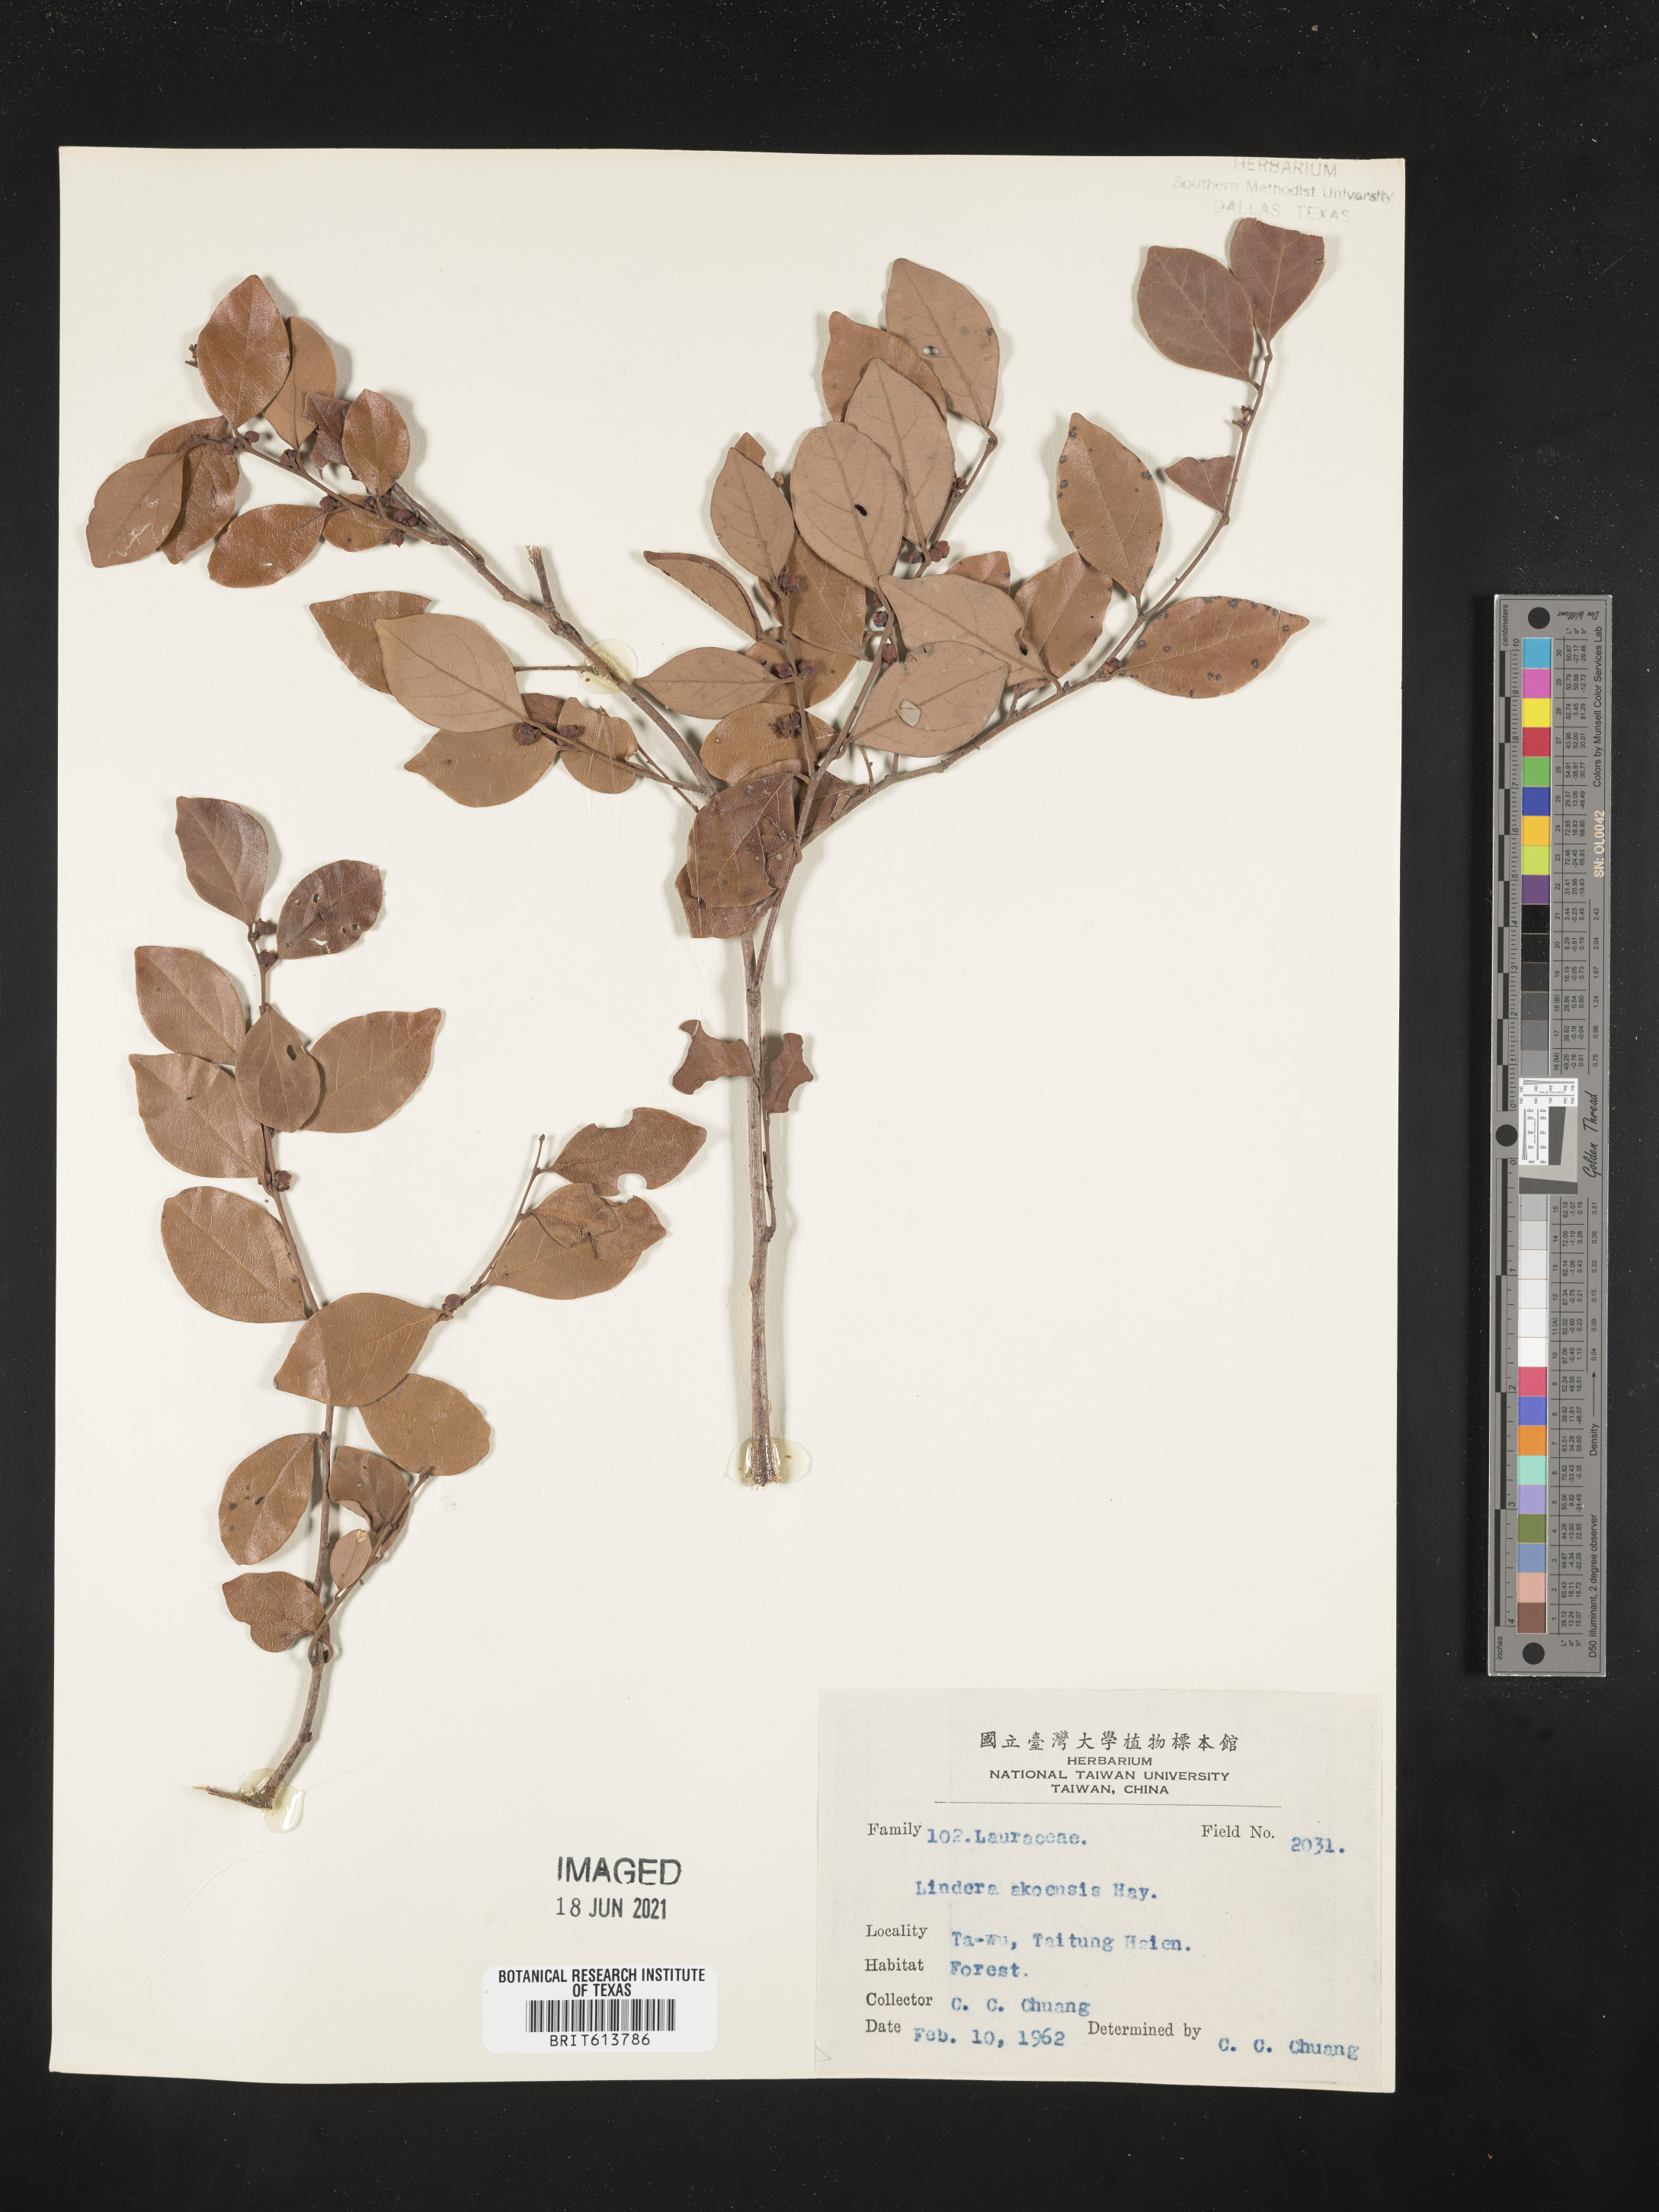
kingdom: Plantae
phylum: Tracheophyta
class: Magnoliopsida
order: Laurales
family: Lauraceae
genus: Lindera
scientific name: Lindera akoensis
